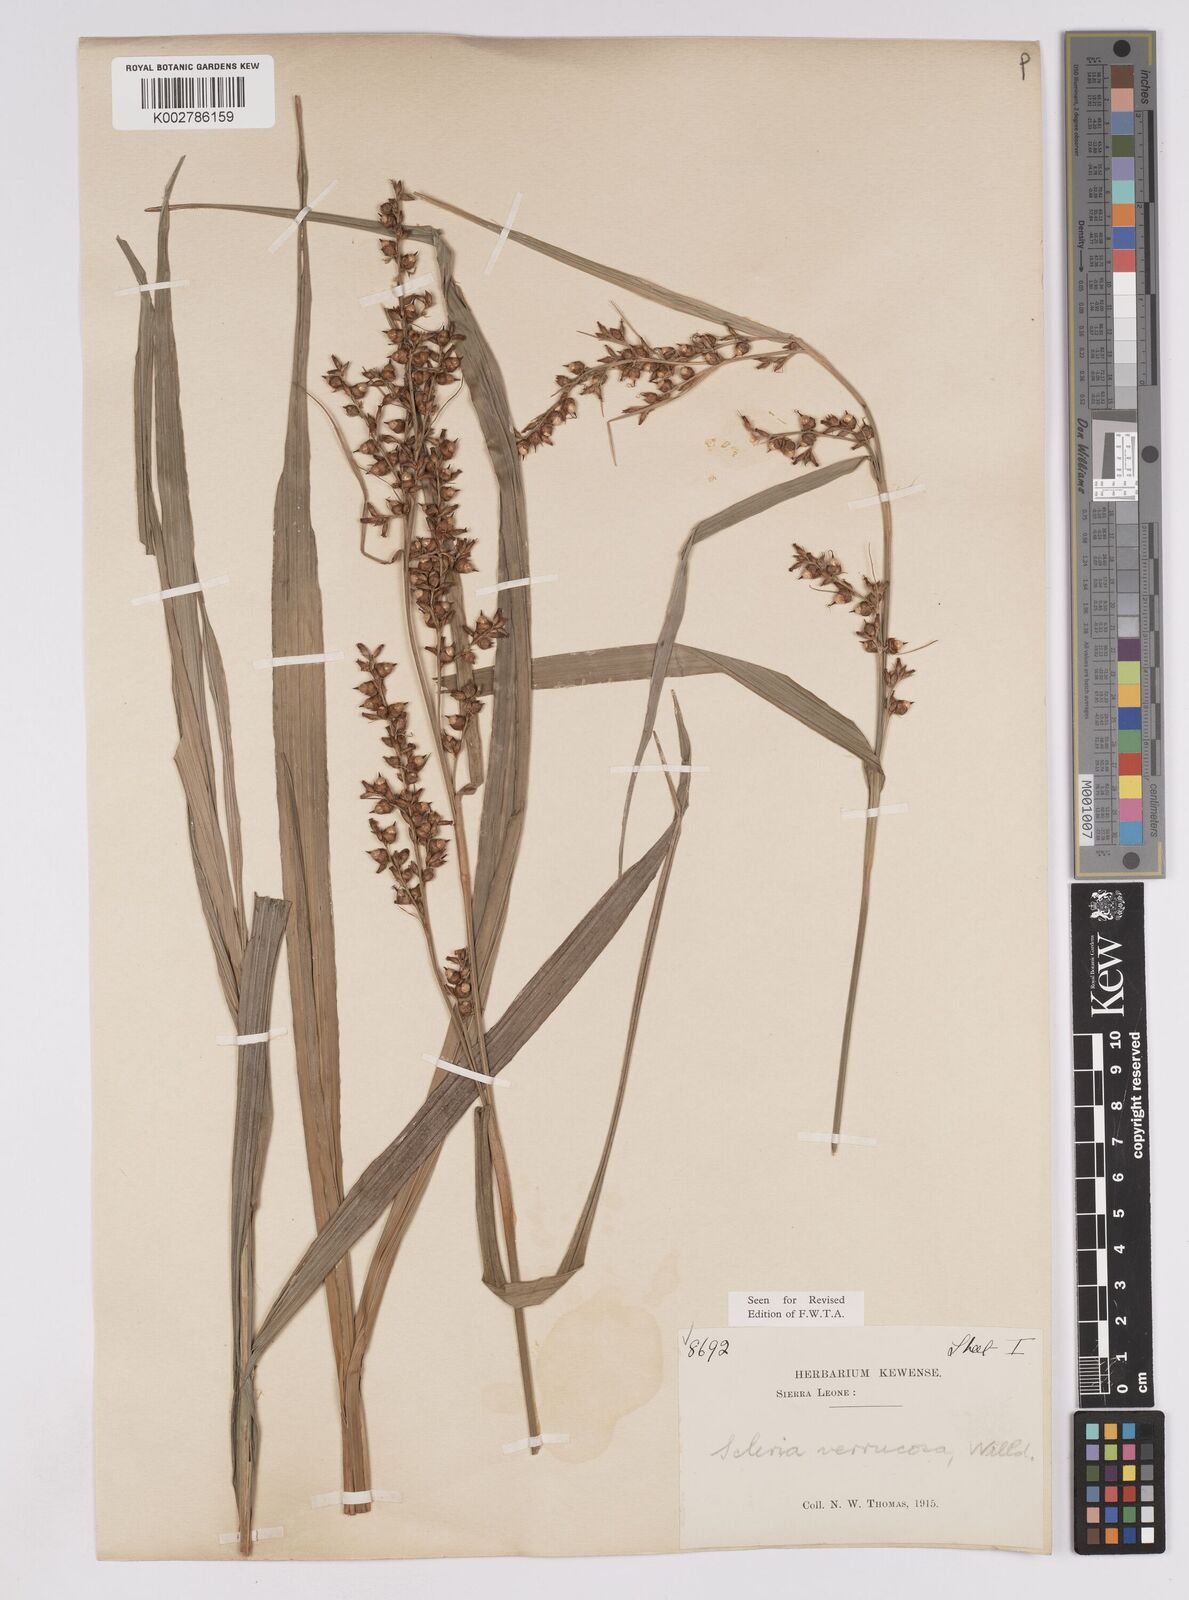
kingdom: Plantae
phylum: Tracheophyta
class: Liliopsida
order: Poales
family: Cyperaceae
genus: Scleria
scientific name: Scleria verrucosa
